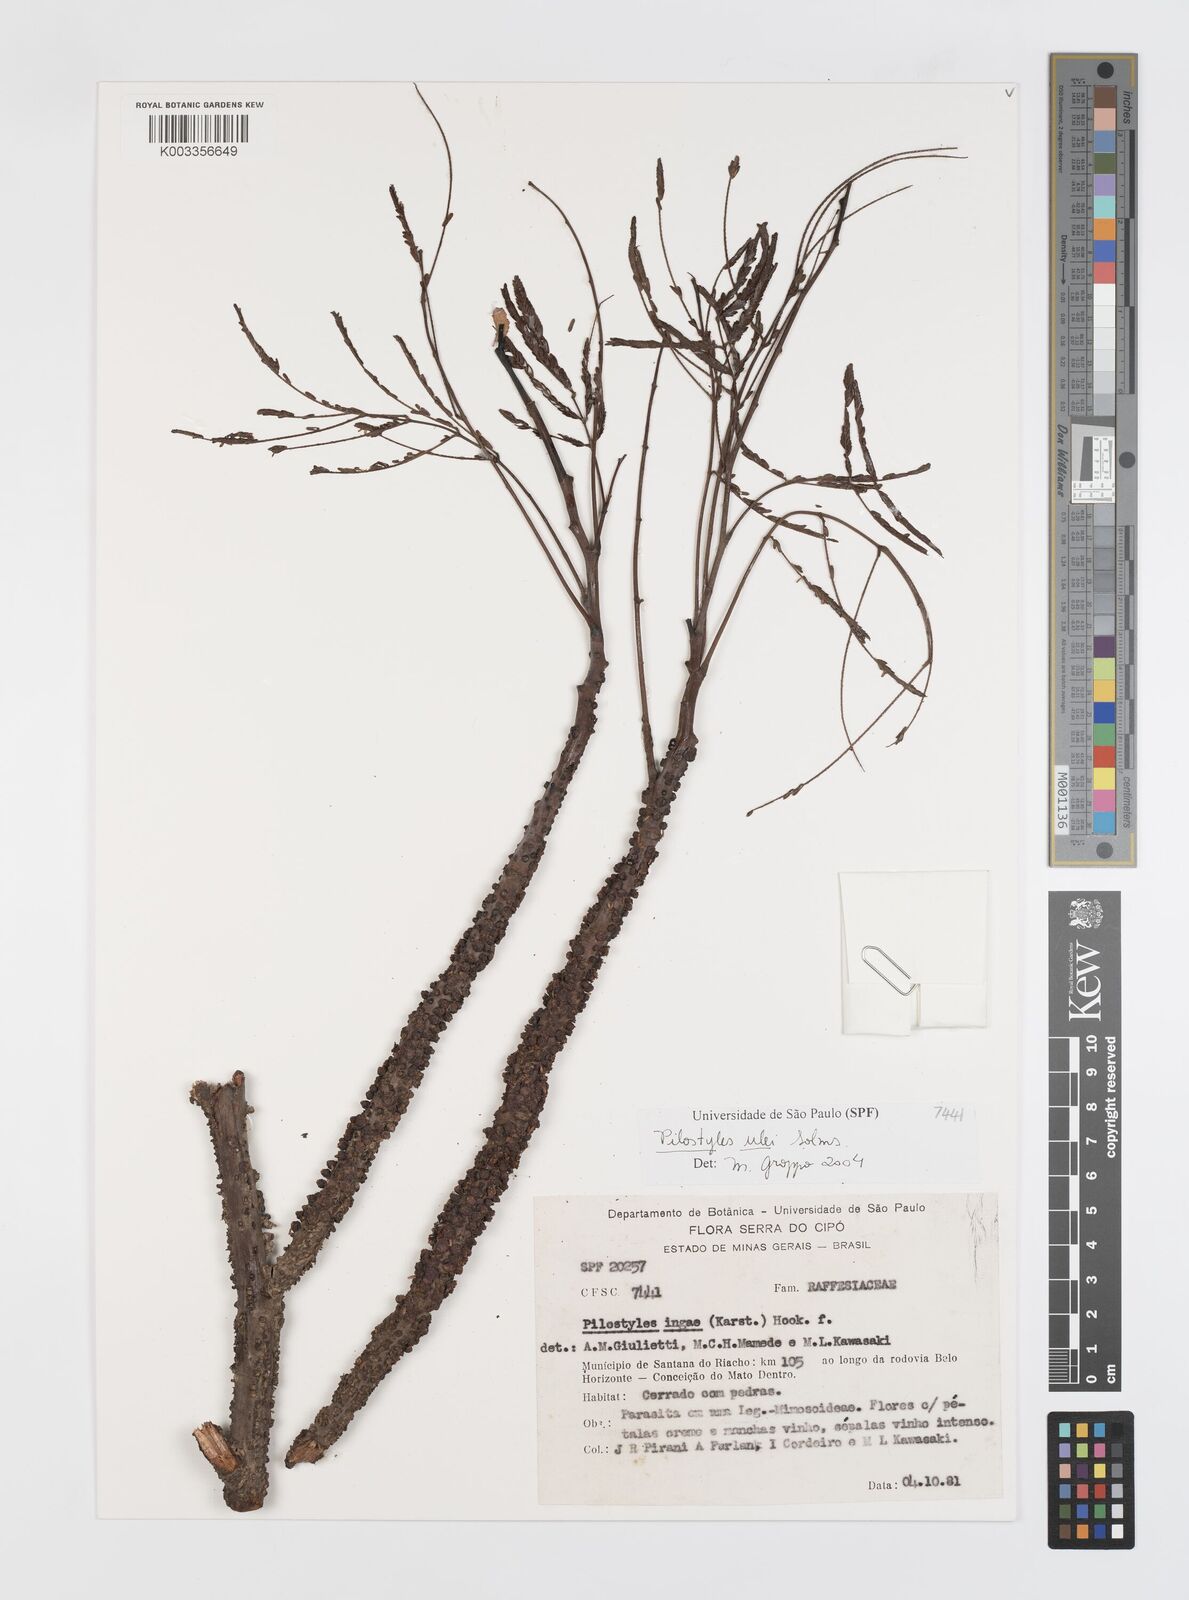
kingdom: Plantae
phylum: Tracheophyta
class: Magnoliopsida
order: Cucurbitales
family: Apodanthaceae
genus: Pilostyles
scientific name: Pilostyles blanchetii
